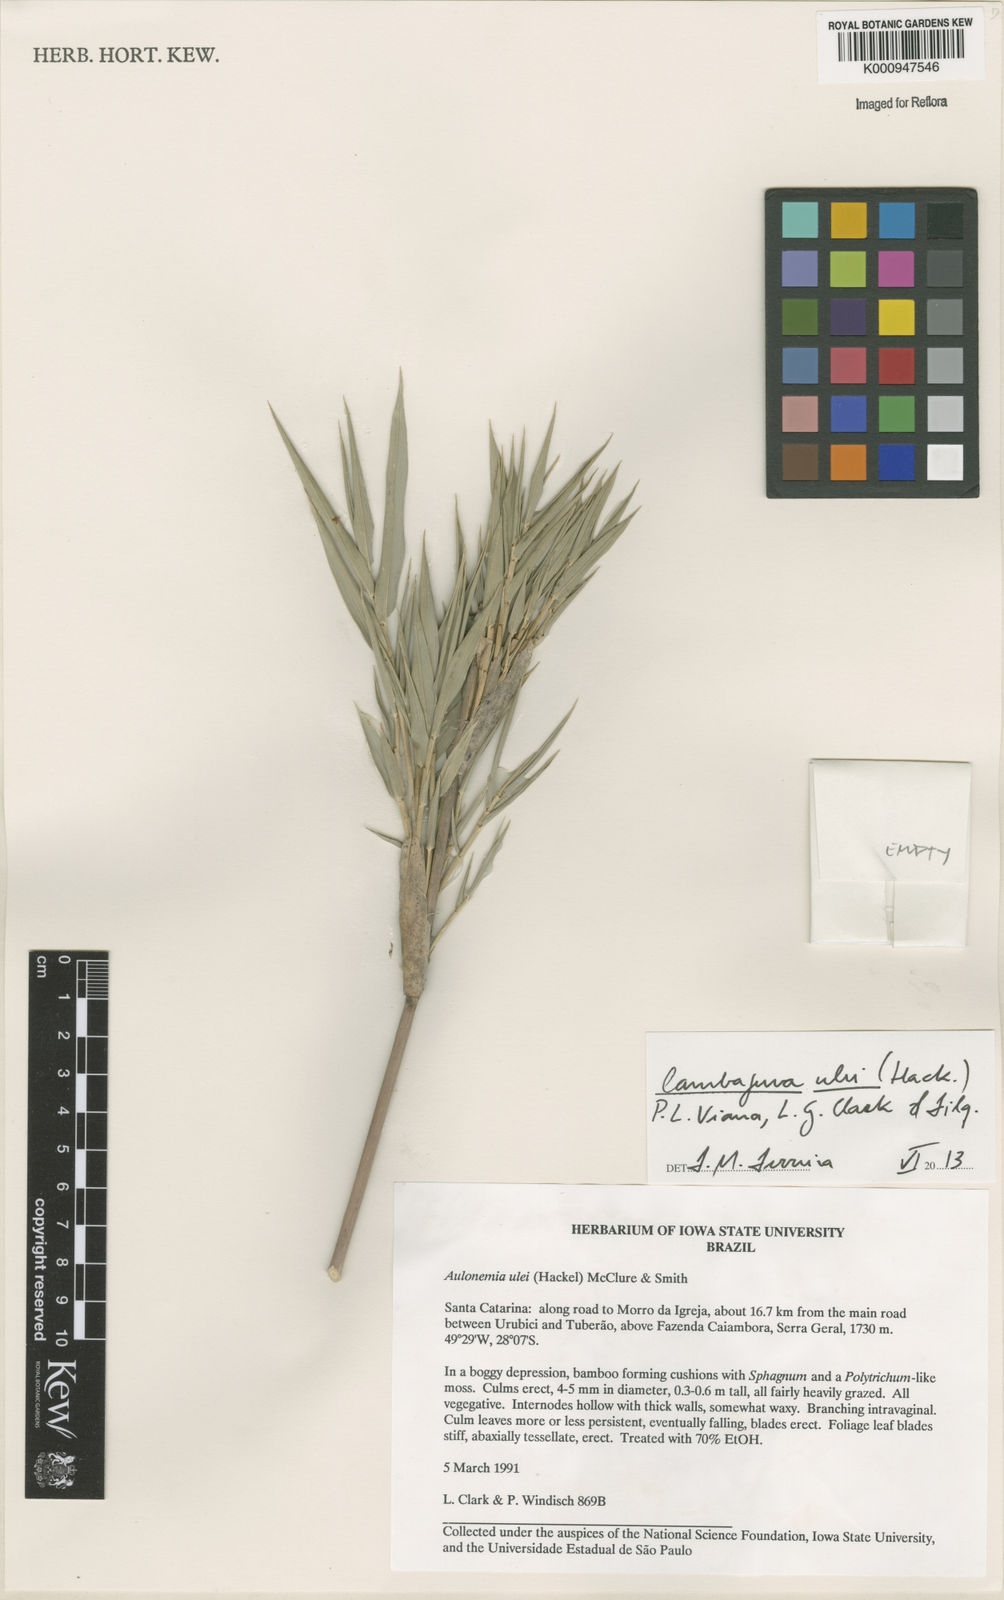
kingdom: Plantae
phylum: Tracheophyta
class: Liliopsida
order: Poales
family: Poaceae
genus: Cambajuva
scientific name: Cambajuva ulei
